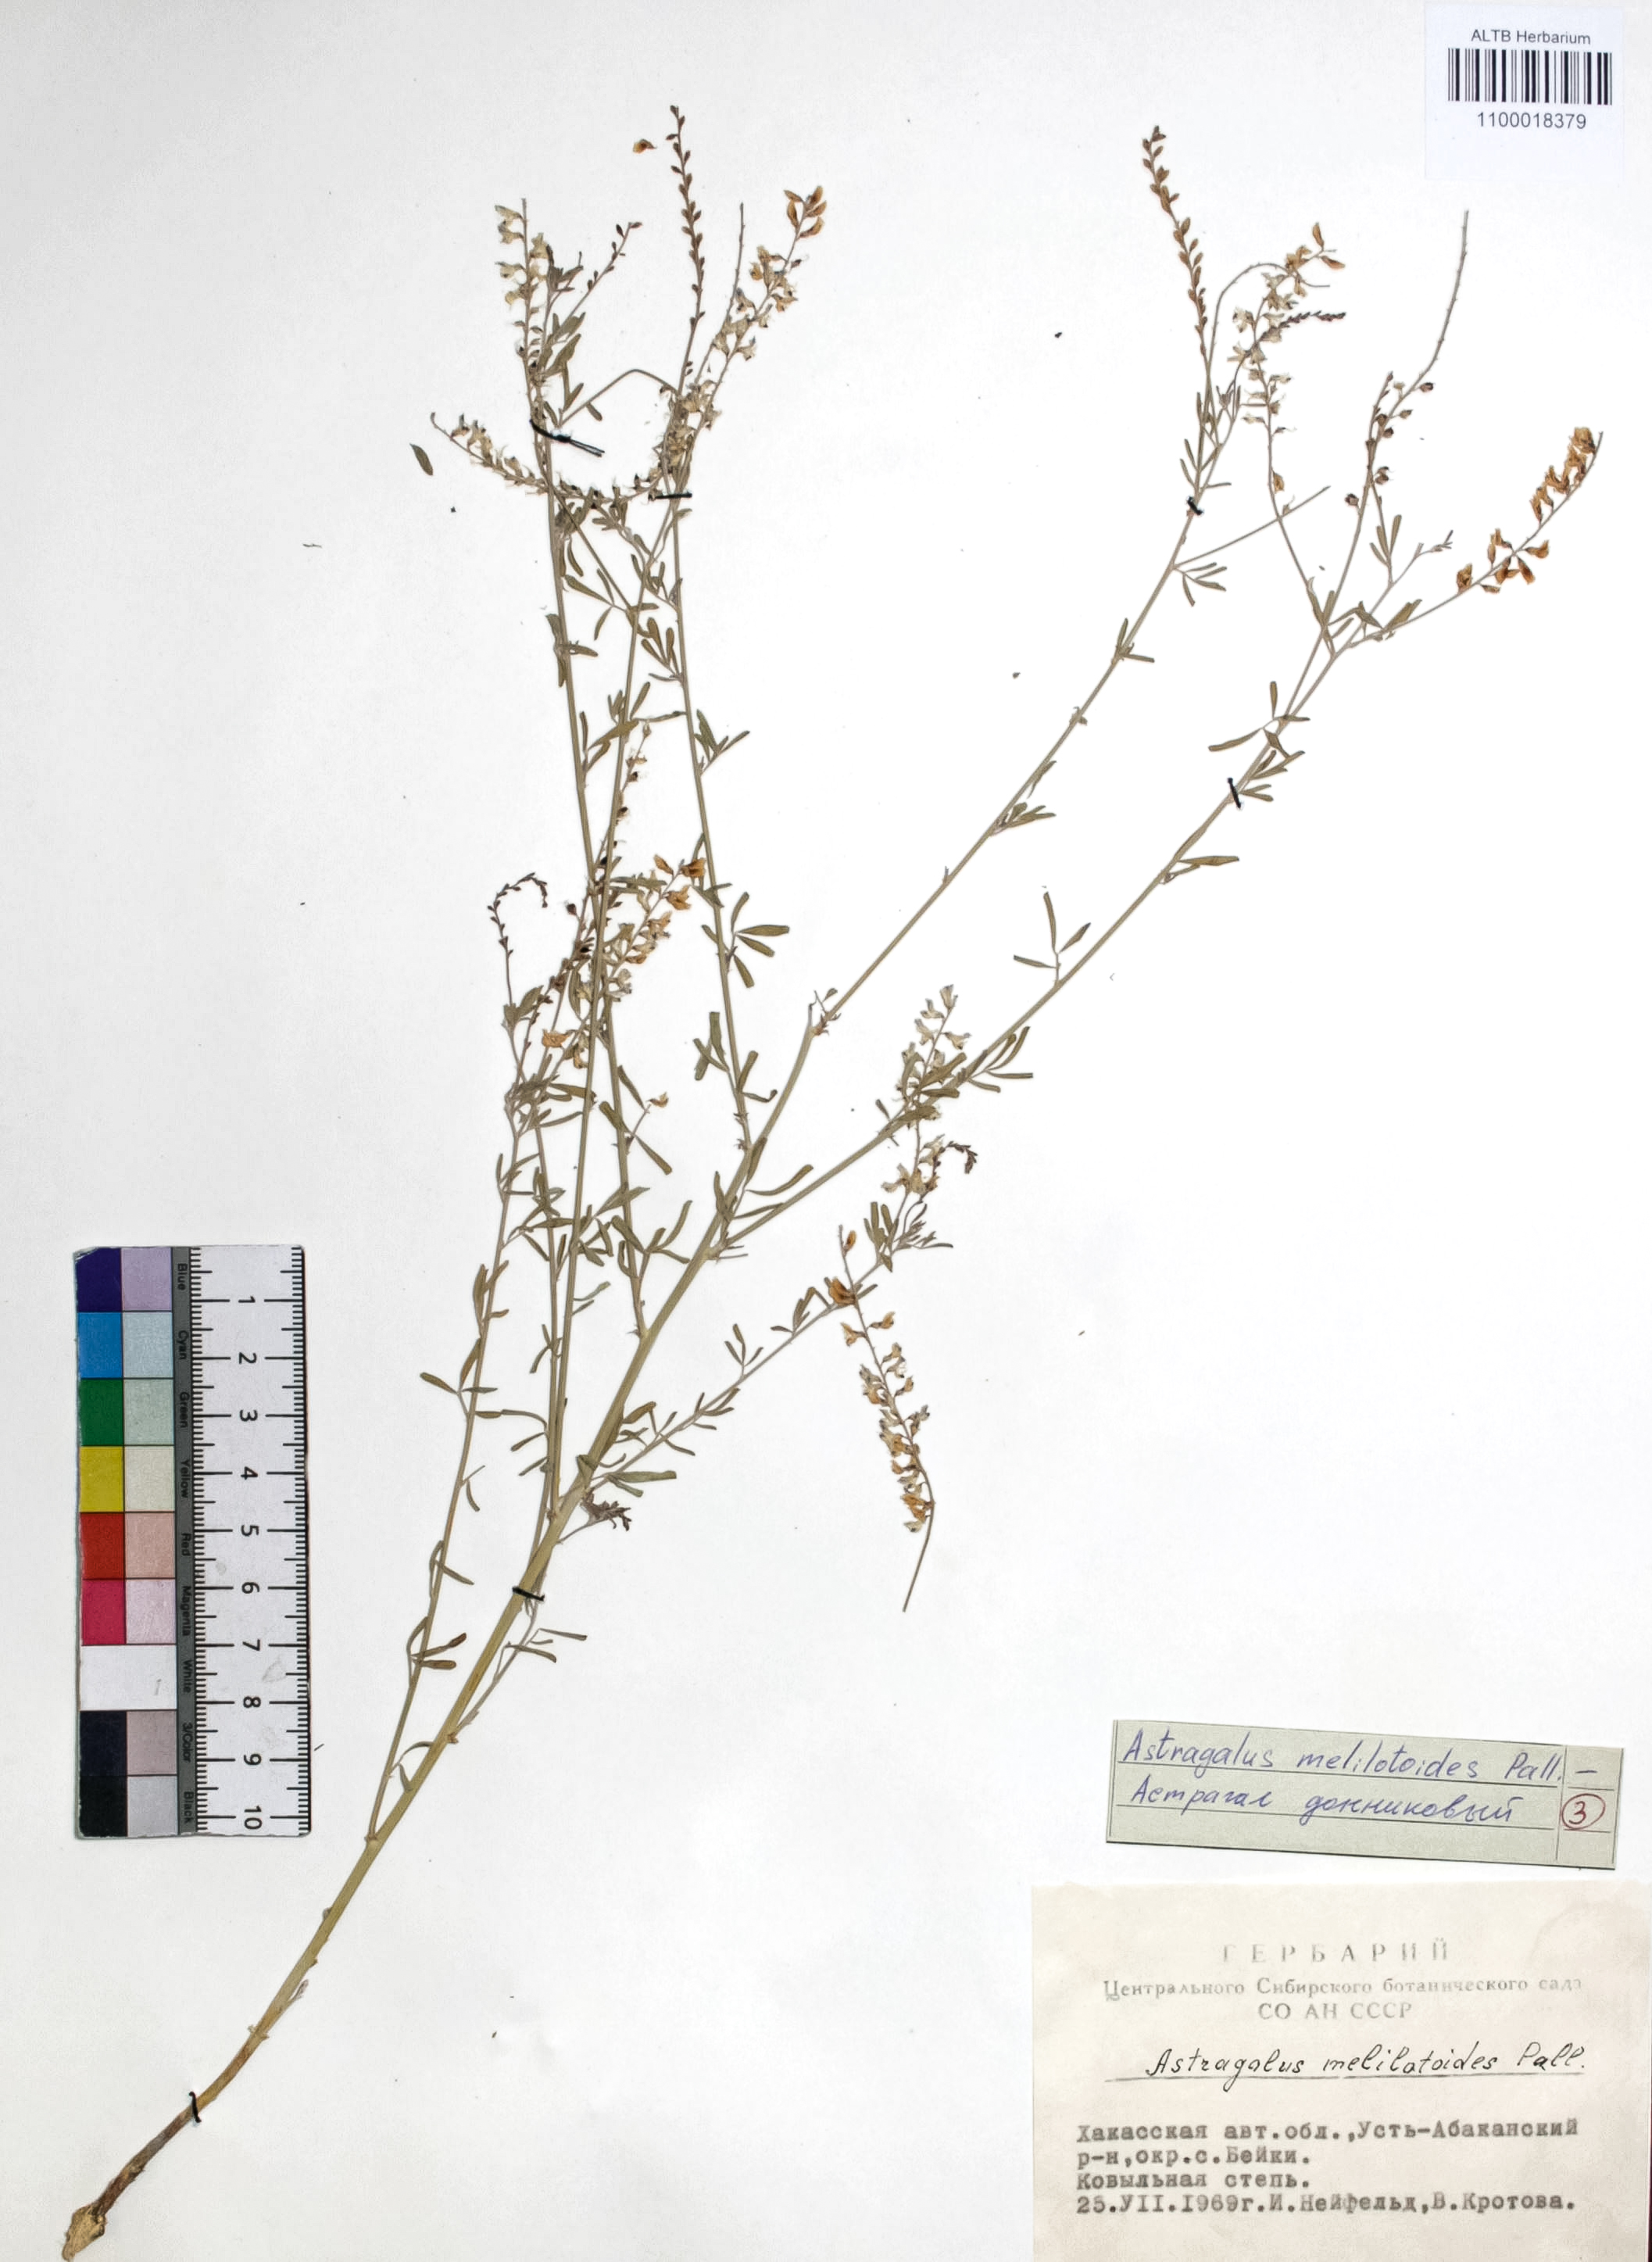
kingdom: Plantae
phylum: Tracheophyta
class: Magnoliopsida
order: Fabales
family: Fabaceae
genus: Astragalus
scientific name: Astragalus melilotoides
